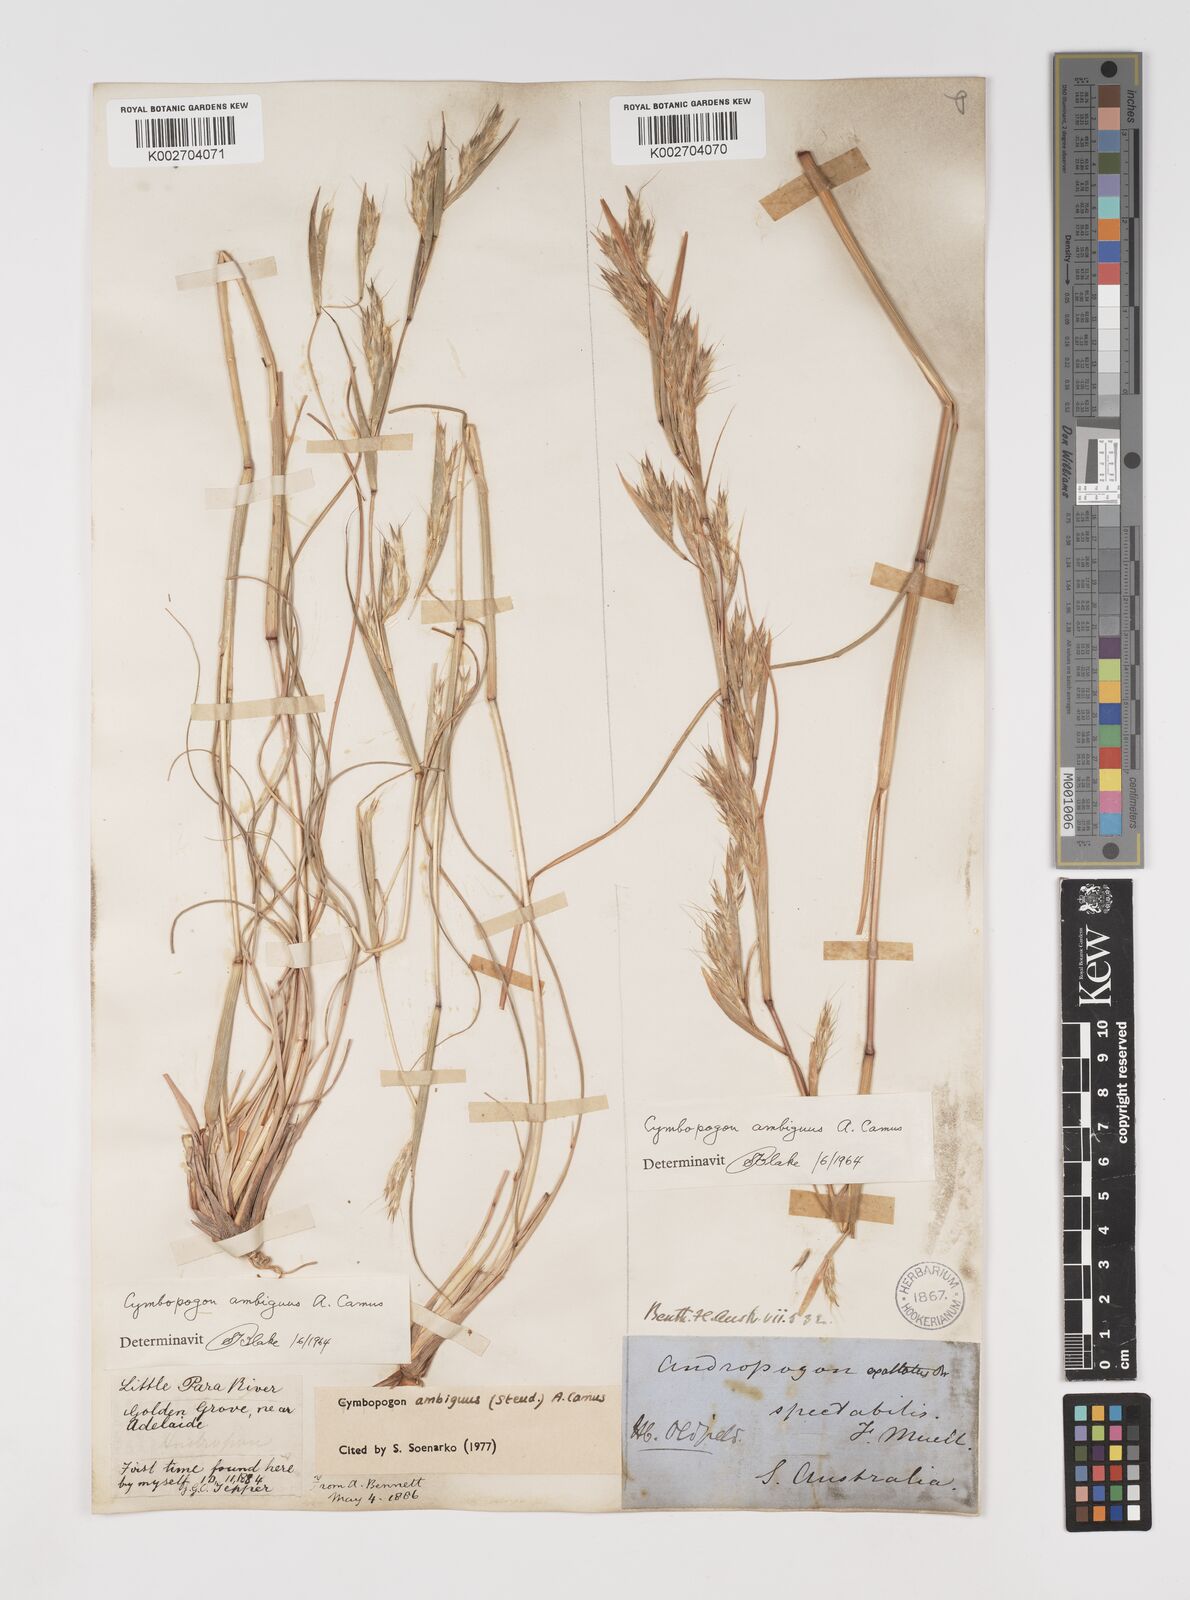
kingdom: Plantae
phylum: Tracheophyta
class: Liliopsida
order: Poales
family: Poaceae
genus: Cymbopogon
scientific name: Cymbopogon ambiguus
